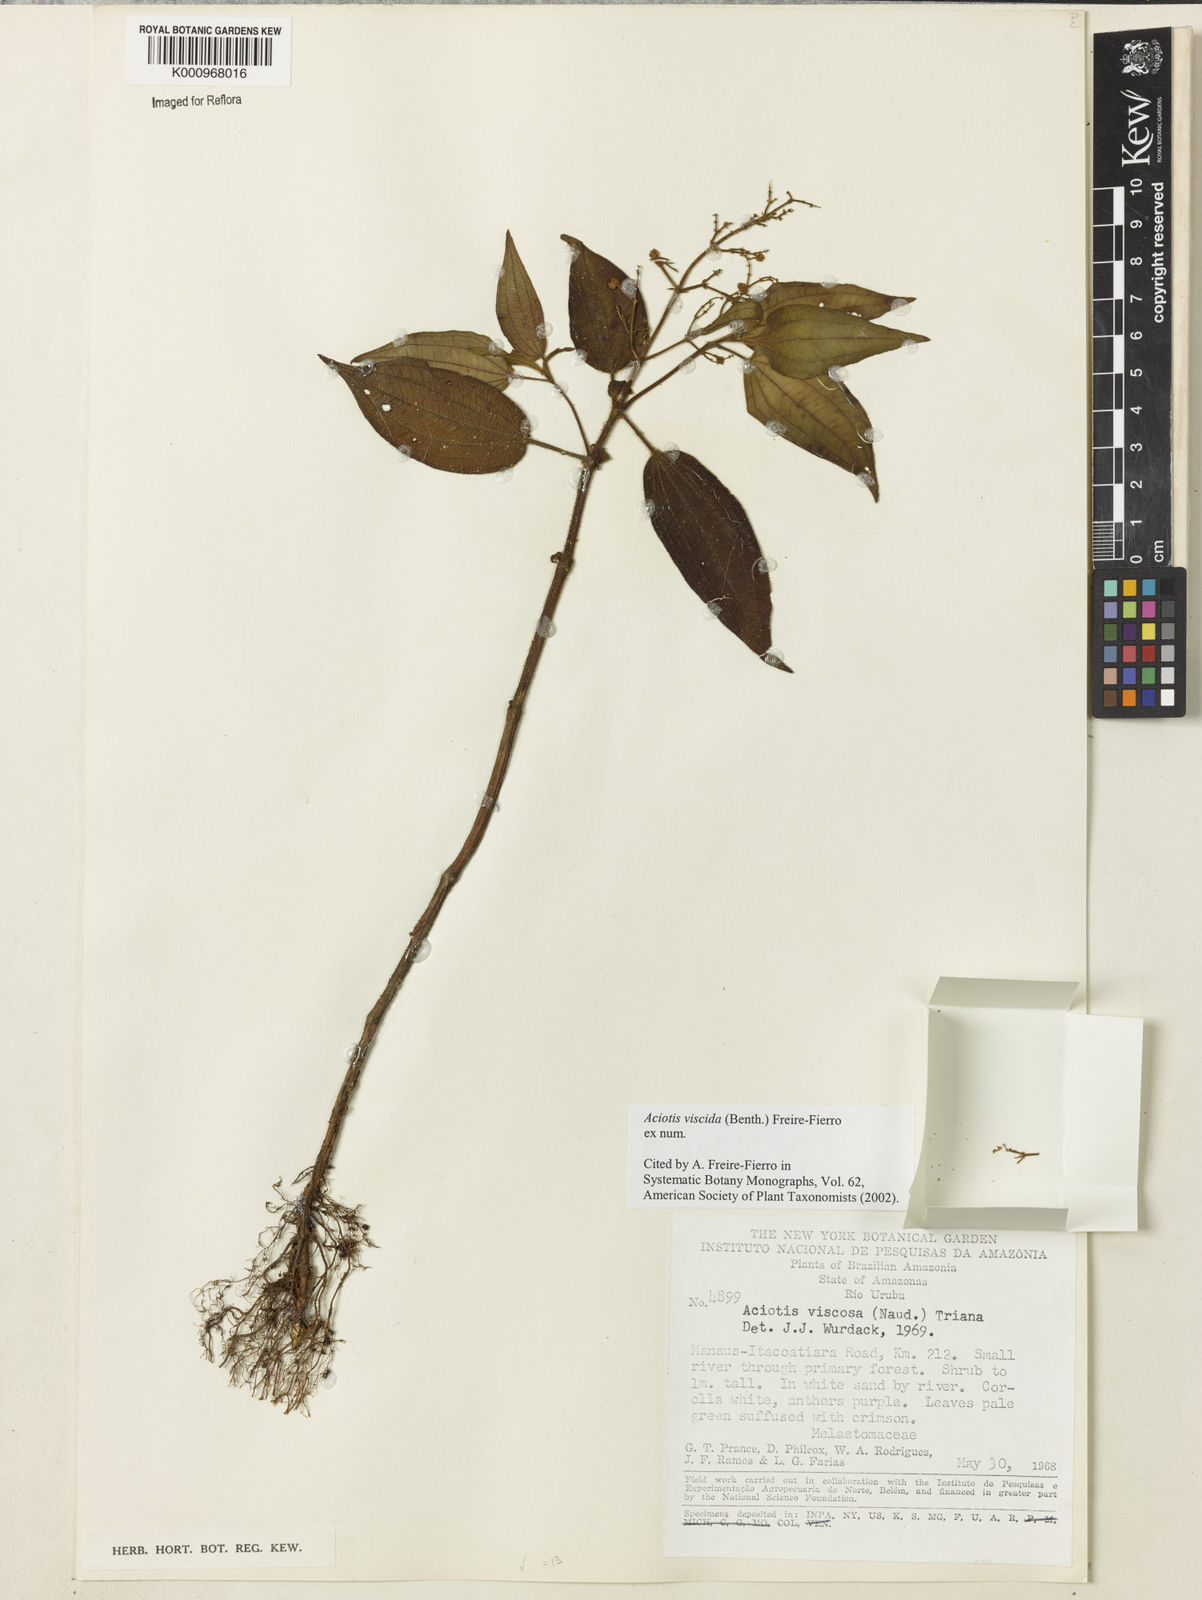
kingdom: Plantae
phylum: Tracheophyta
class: Magnoliopsida
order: Myrtales
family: Melastomataceae
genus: Aciotis
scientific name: Aciotis viscida
